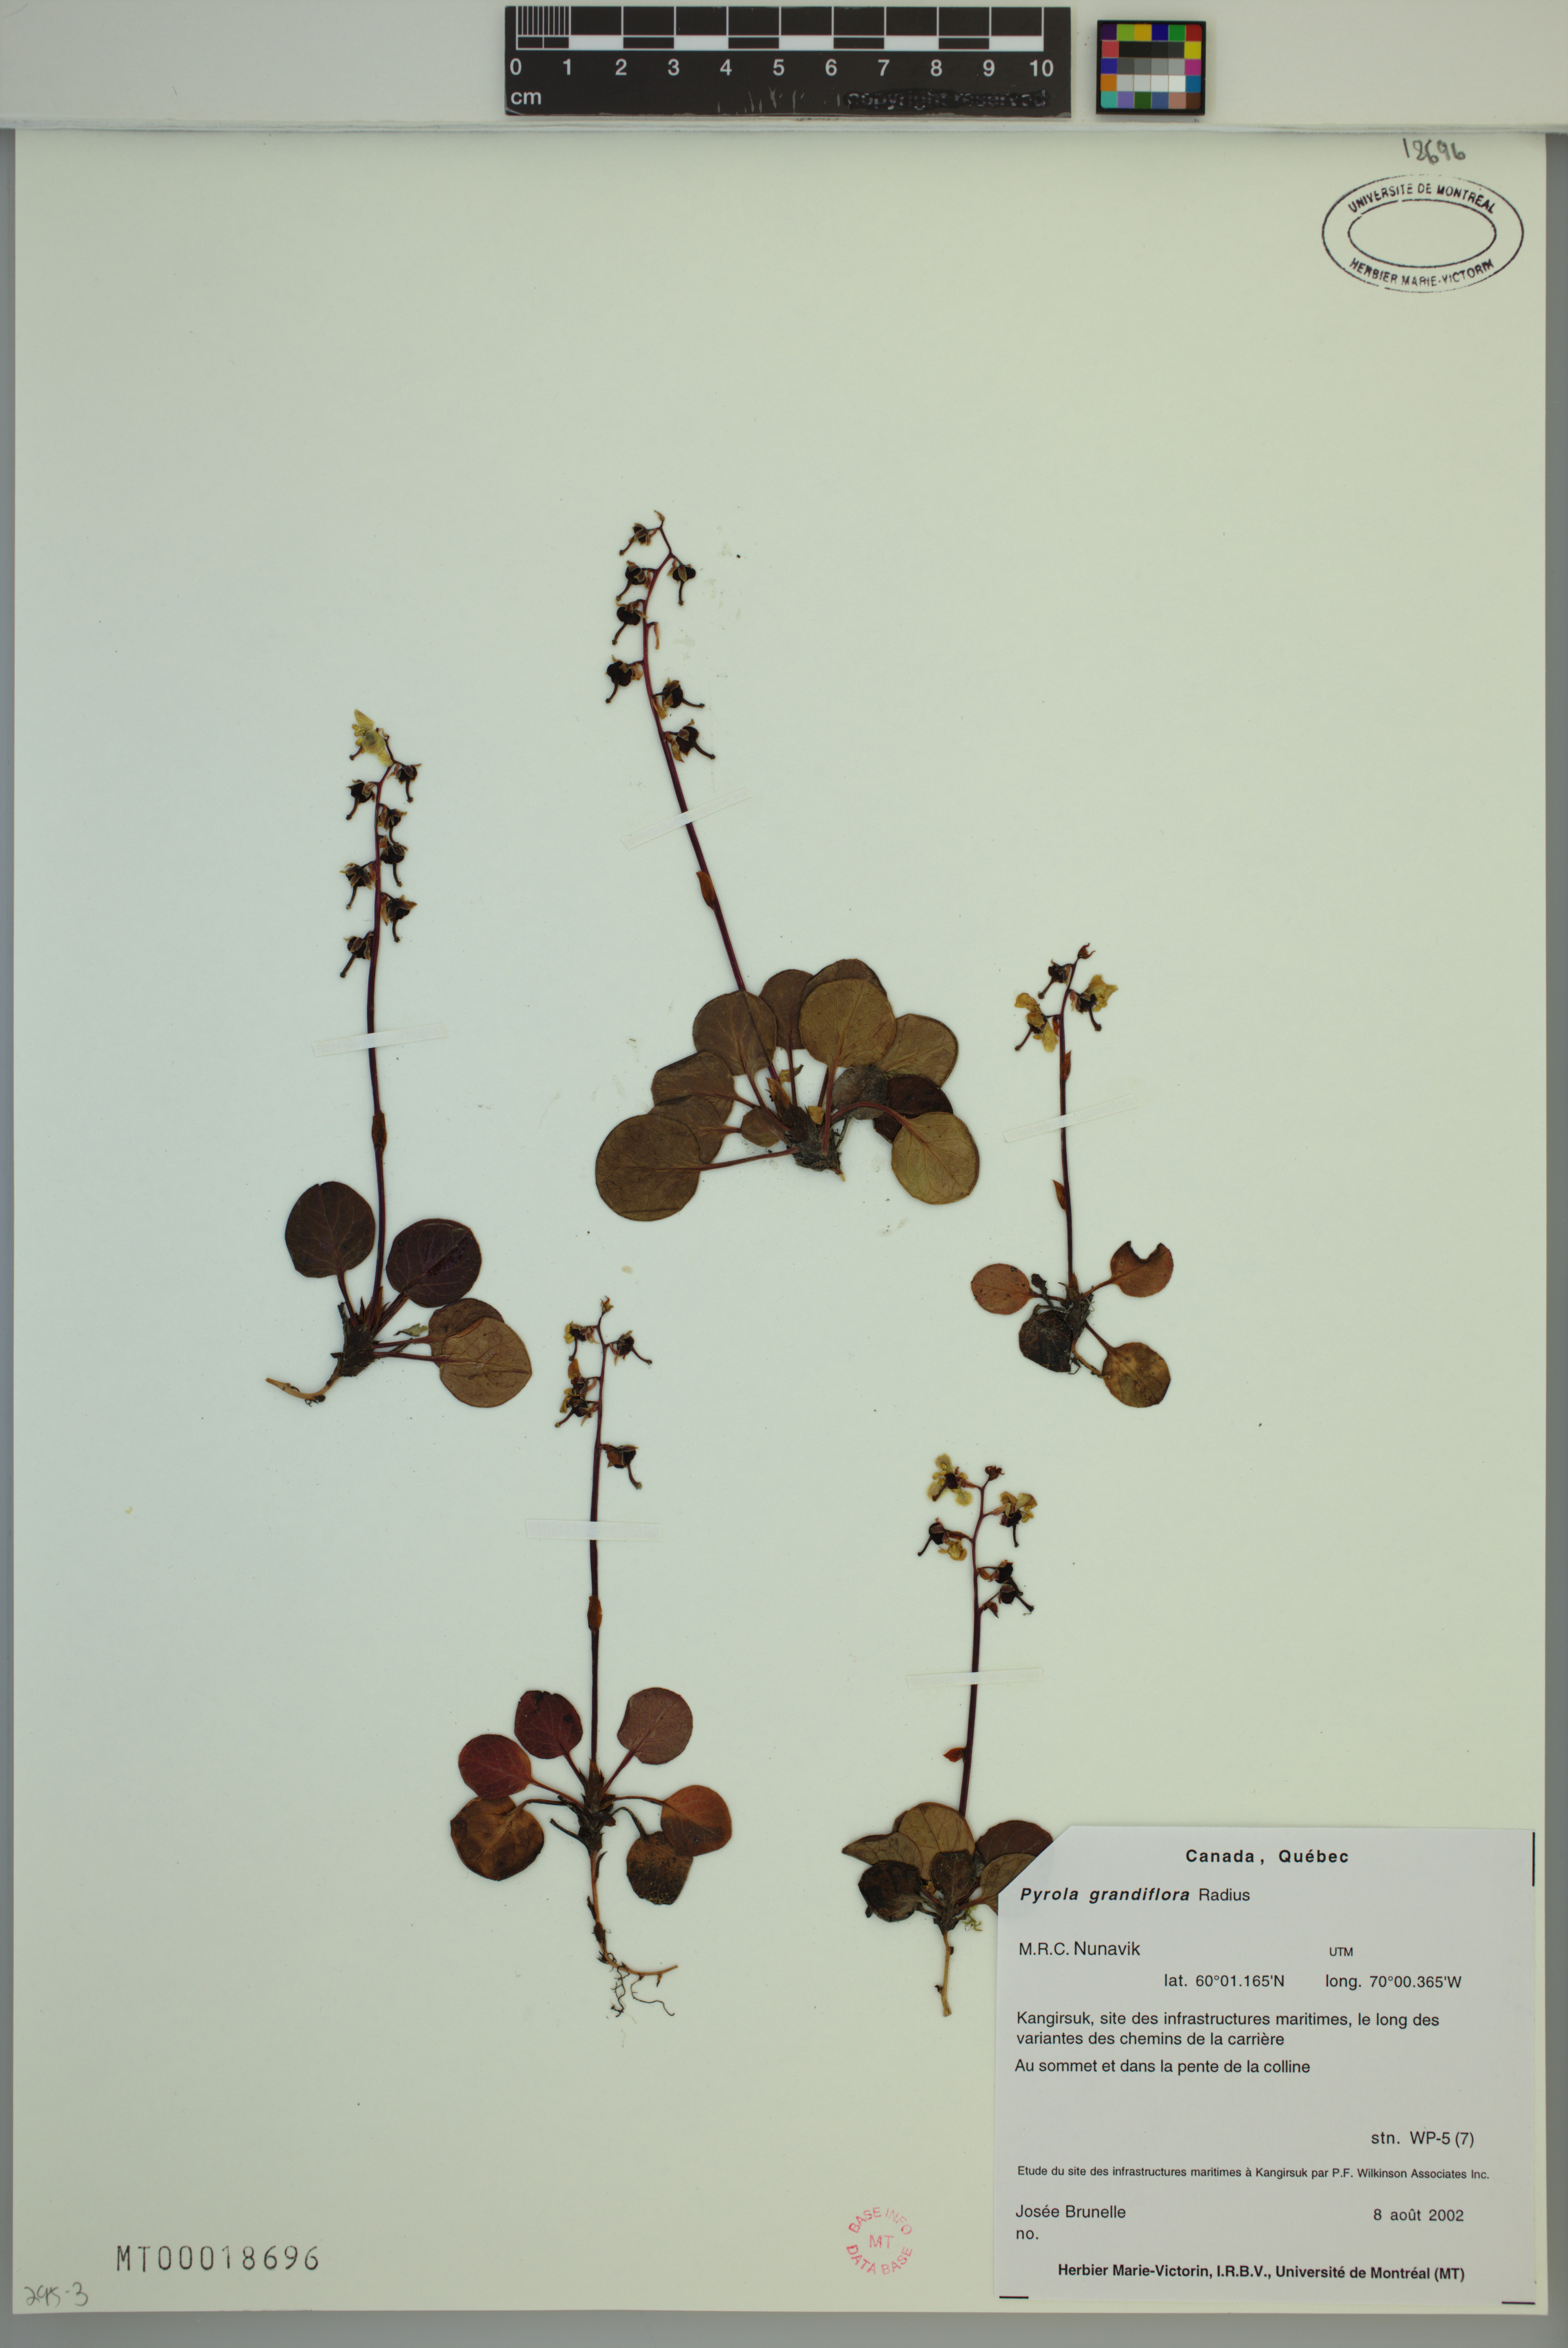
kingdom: Plantae
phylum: Tracheophyta
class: Magnoliopsida
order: Ericales
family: Ericaceae
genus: Pyrola
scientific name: Pyrola grandiflora
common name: Arctic pyrola
